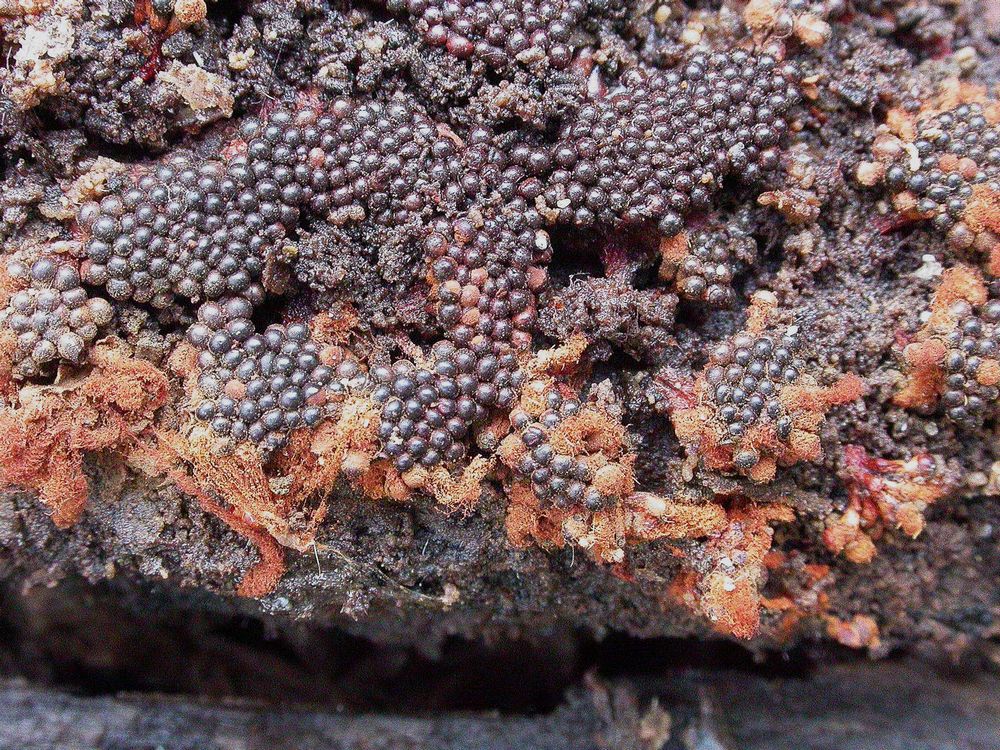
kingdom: Protozoa
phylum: Mycetozoa
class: Myxomycetes
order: Trichiales
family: Trichiaceae
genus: Metatrichia
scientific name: Metatrichia vesparia
